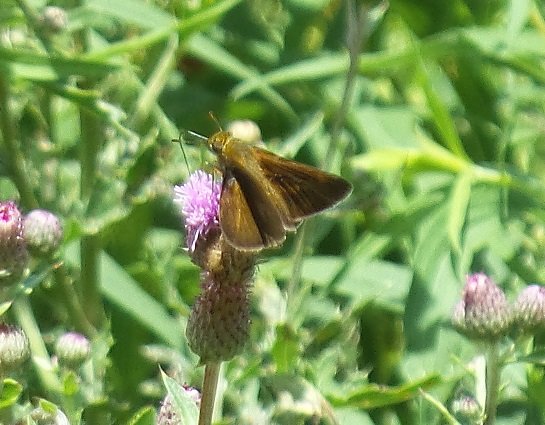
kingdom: Animalia
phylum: Arthropoda
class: Insecta
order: Lepidoptera
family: Hesperiidae
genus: Euphyes
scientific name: Euphyes vestris
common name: Dun Skipper
